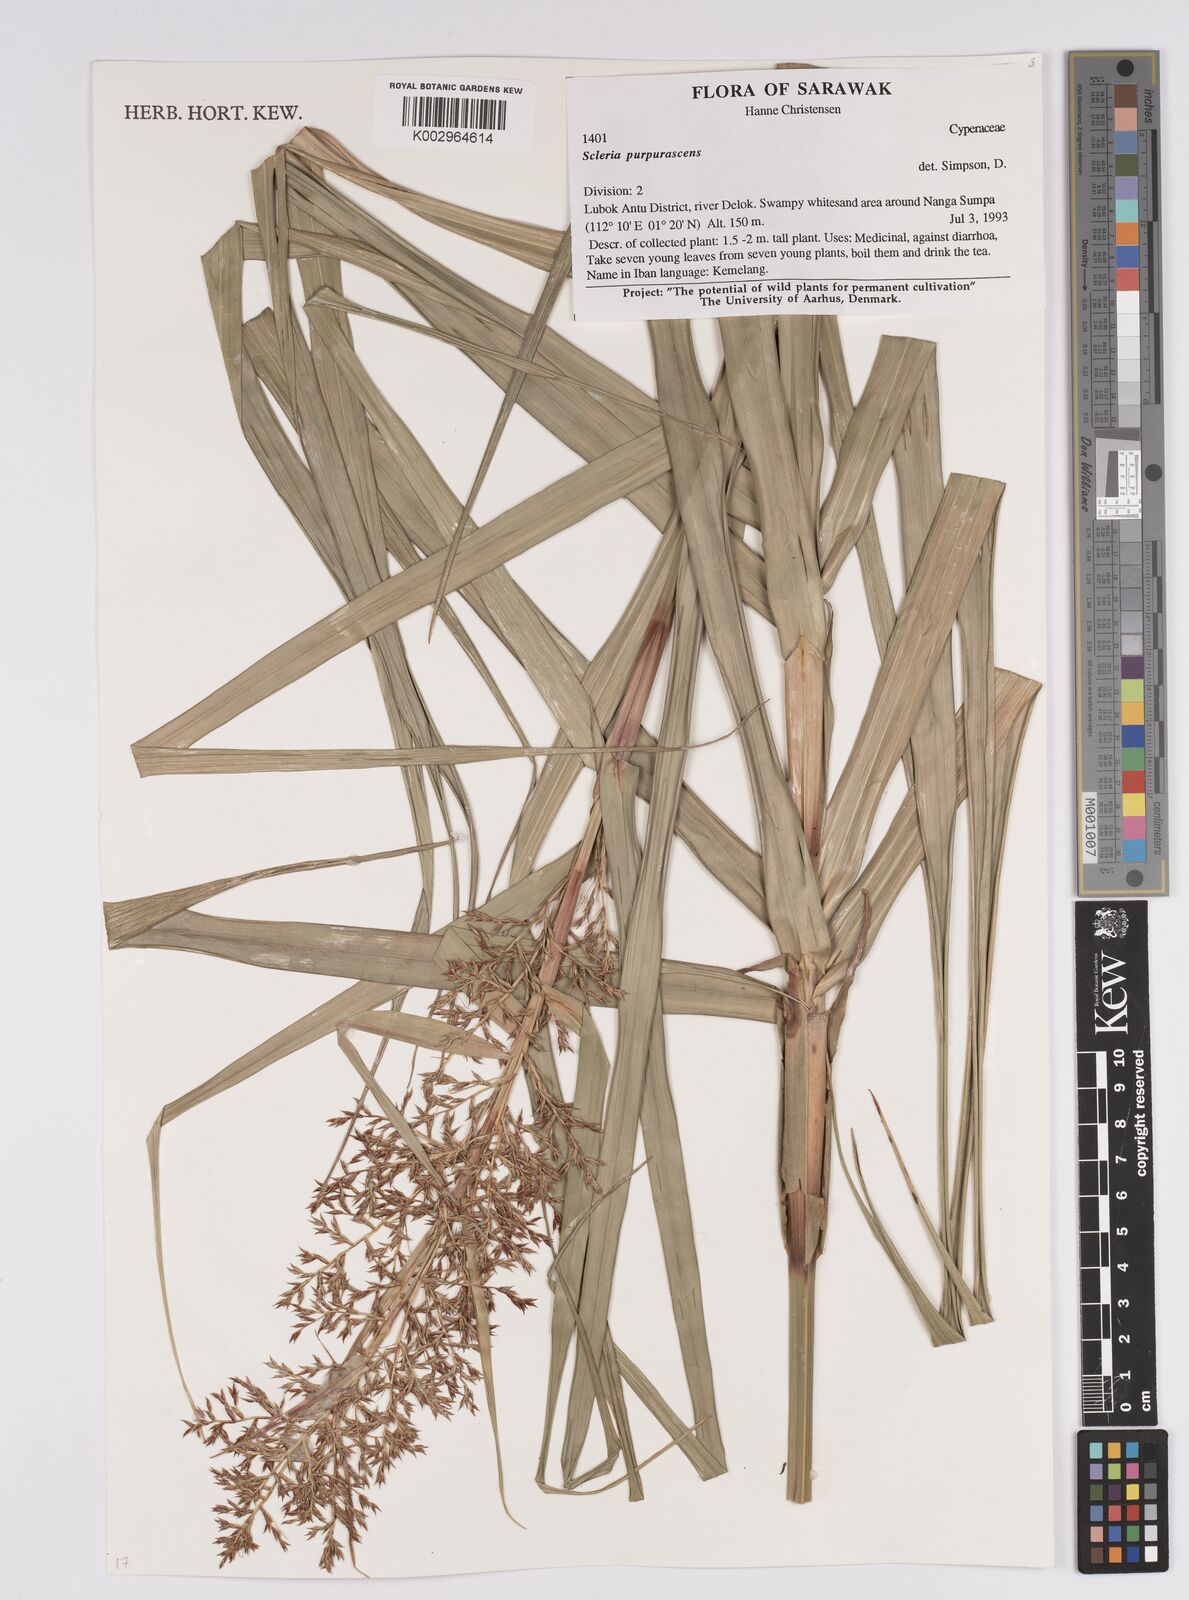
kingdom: Plantae
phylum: Tracheophyta
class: Liliopsida
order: Poales
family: Cyperaceae
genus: Scleria
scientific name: Scleria purpurascens
